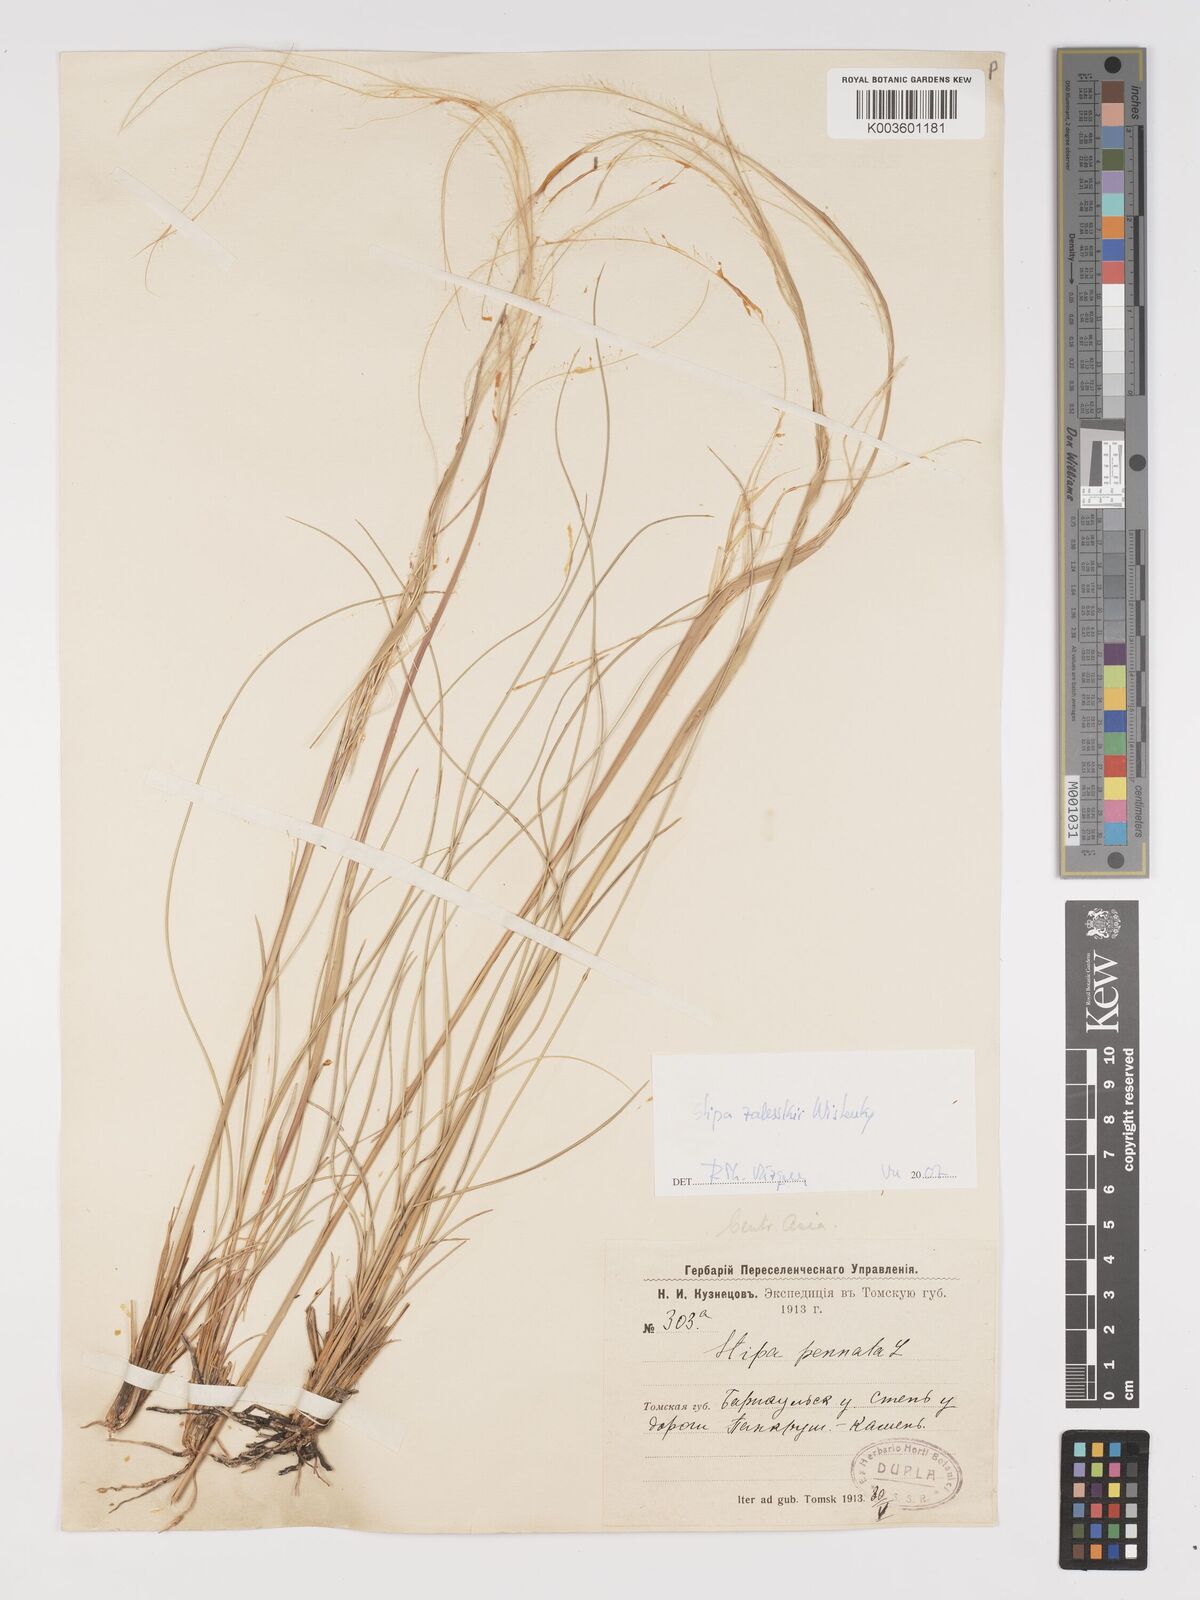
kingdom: Plantae
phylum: Tracheophyta
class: Liliopsida
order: Poales
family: Poaceae
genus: Stipa
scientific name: Stipa
